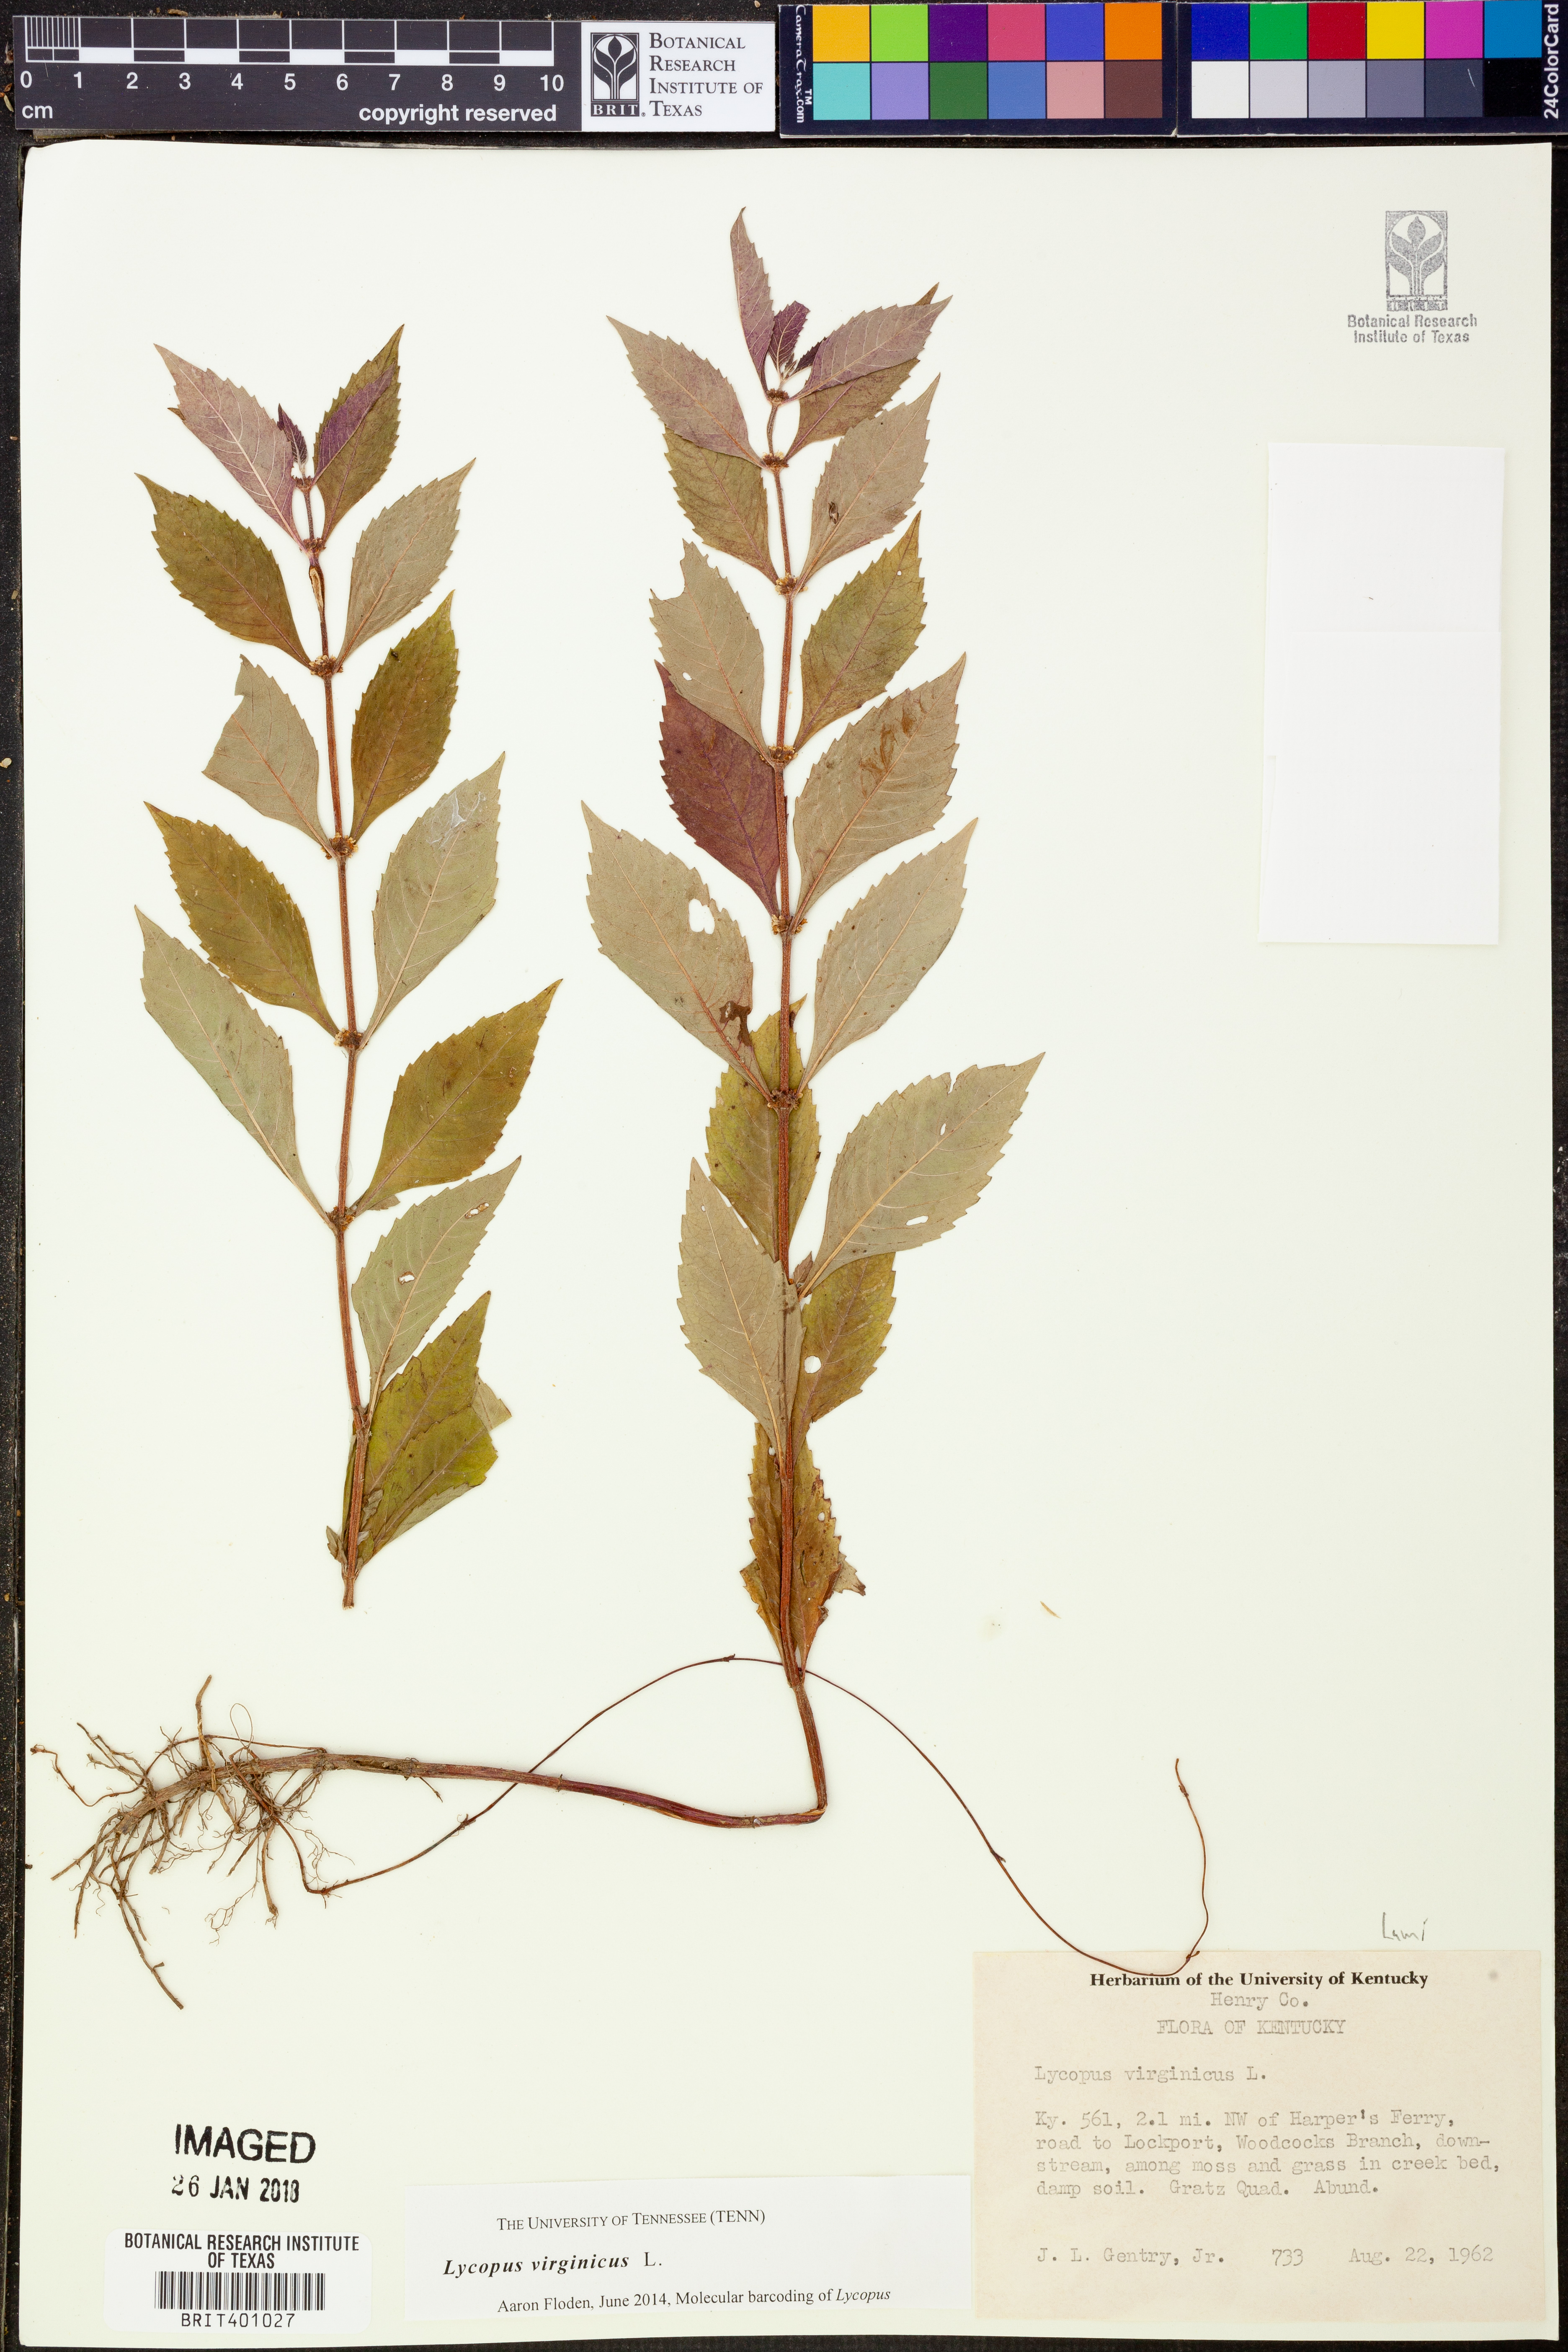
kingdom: Plantae
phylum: Tracheophyta
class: Magnoliopsida
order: Lamiales
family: Lamiaceae
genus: Lycopus
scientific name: Lycopus virginicus
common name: Bugleweed
